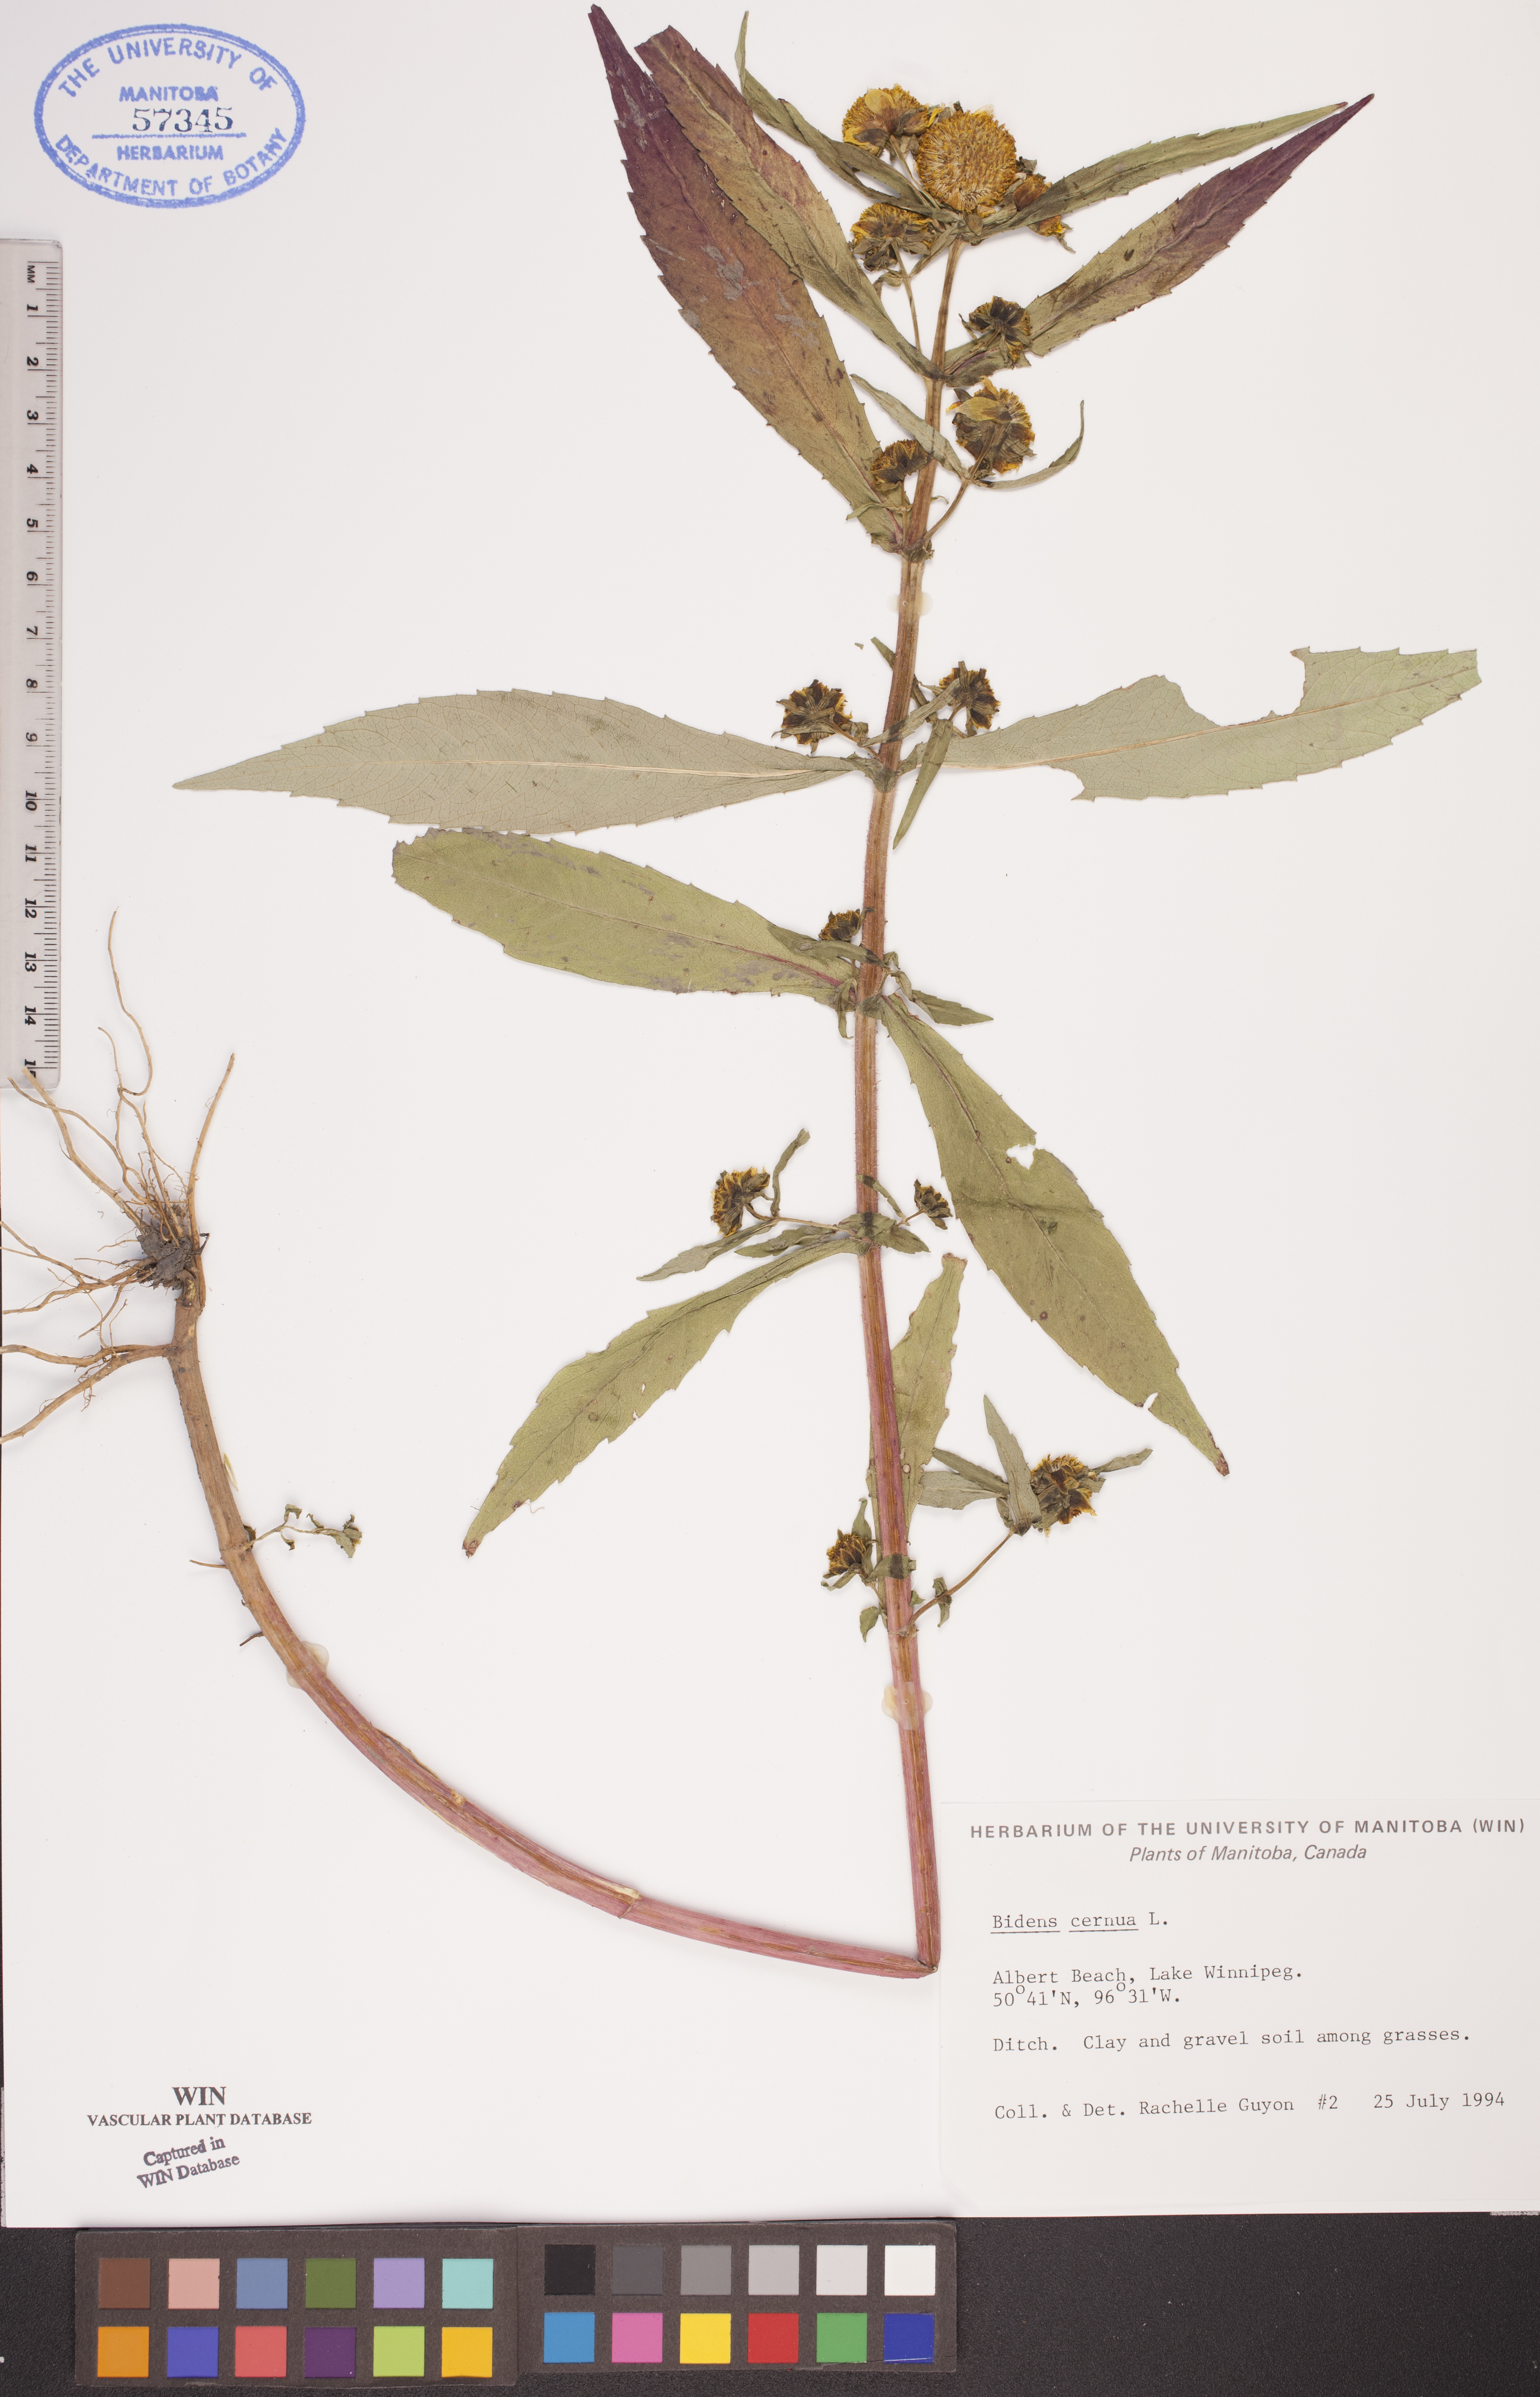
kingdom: Plantae
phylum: Tracheophyta
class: Magnoliopsida
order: Asterales
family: Asteraceae
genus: Bidens
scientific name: Bidens cernua
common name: Nodding bur-marigold
